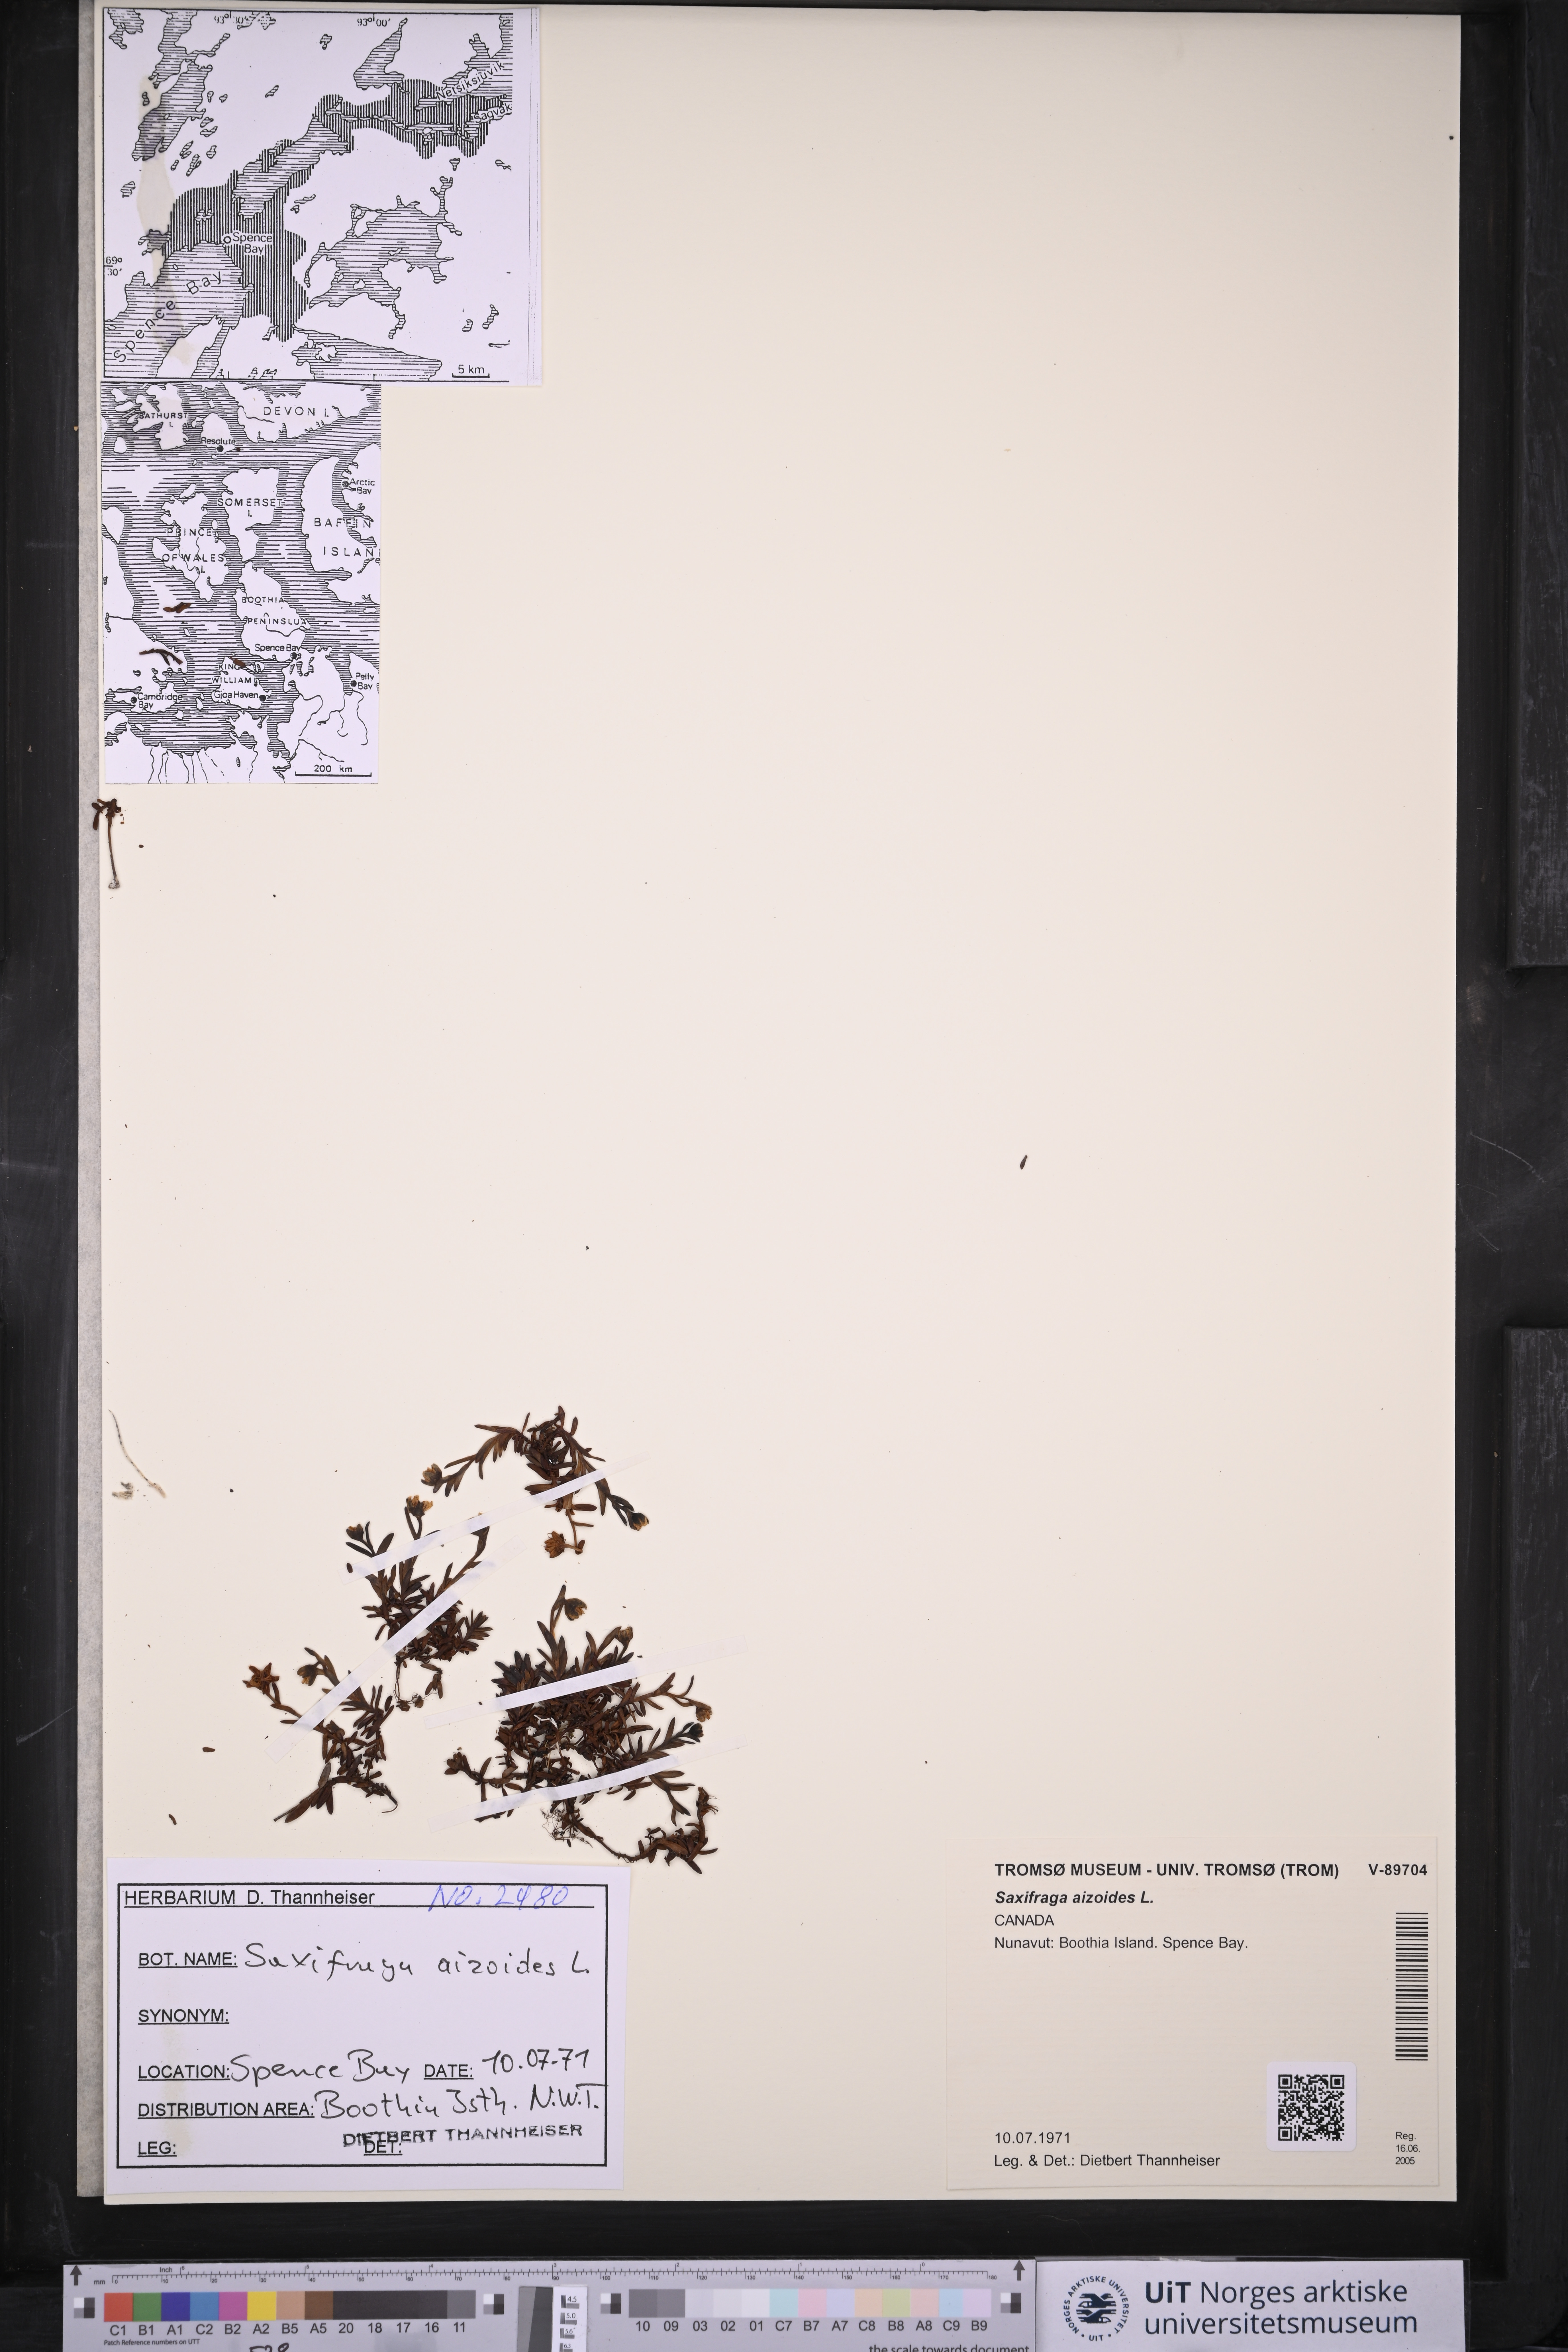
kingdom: Plantae
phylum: Tracheophyta
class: Magnoliopsida
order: Saxifragales
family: Saxifragaceae
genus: Saxifraga
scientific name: Saxifraga aizoides
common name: Yellow mountain saxifrage
